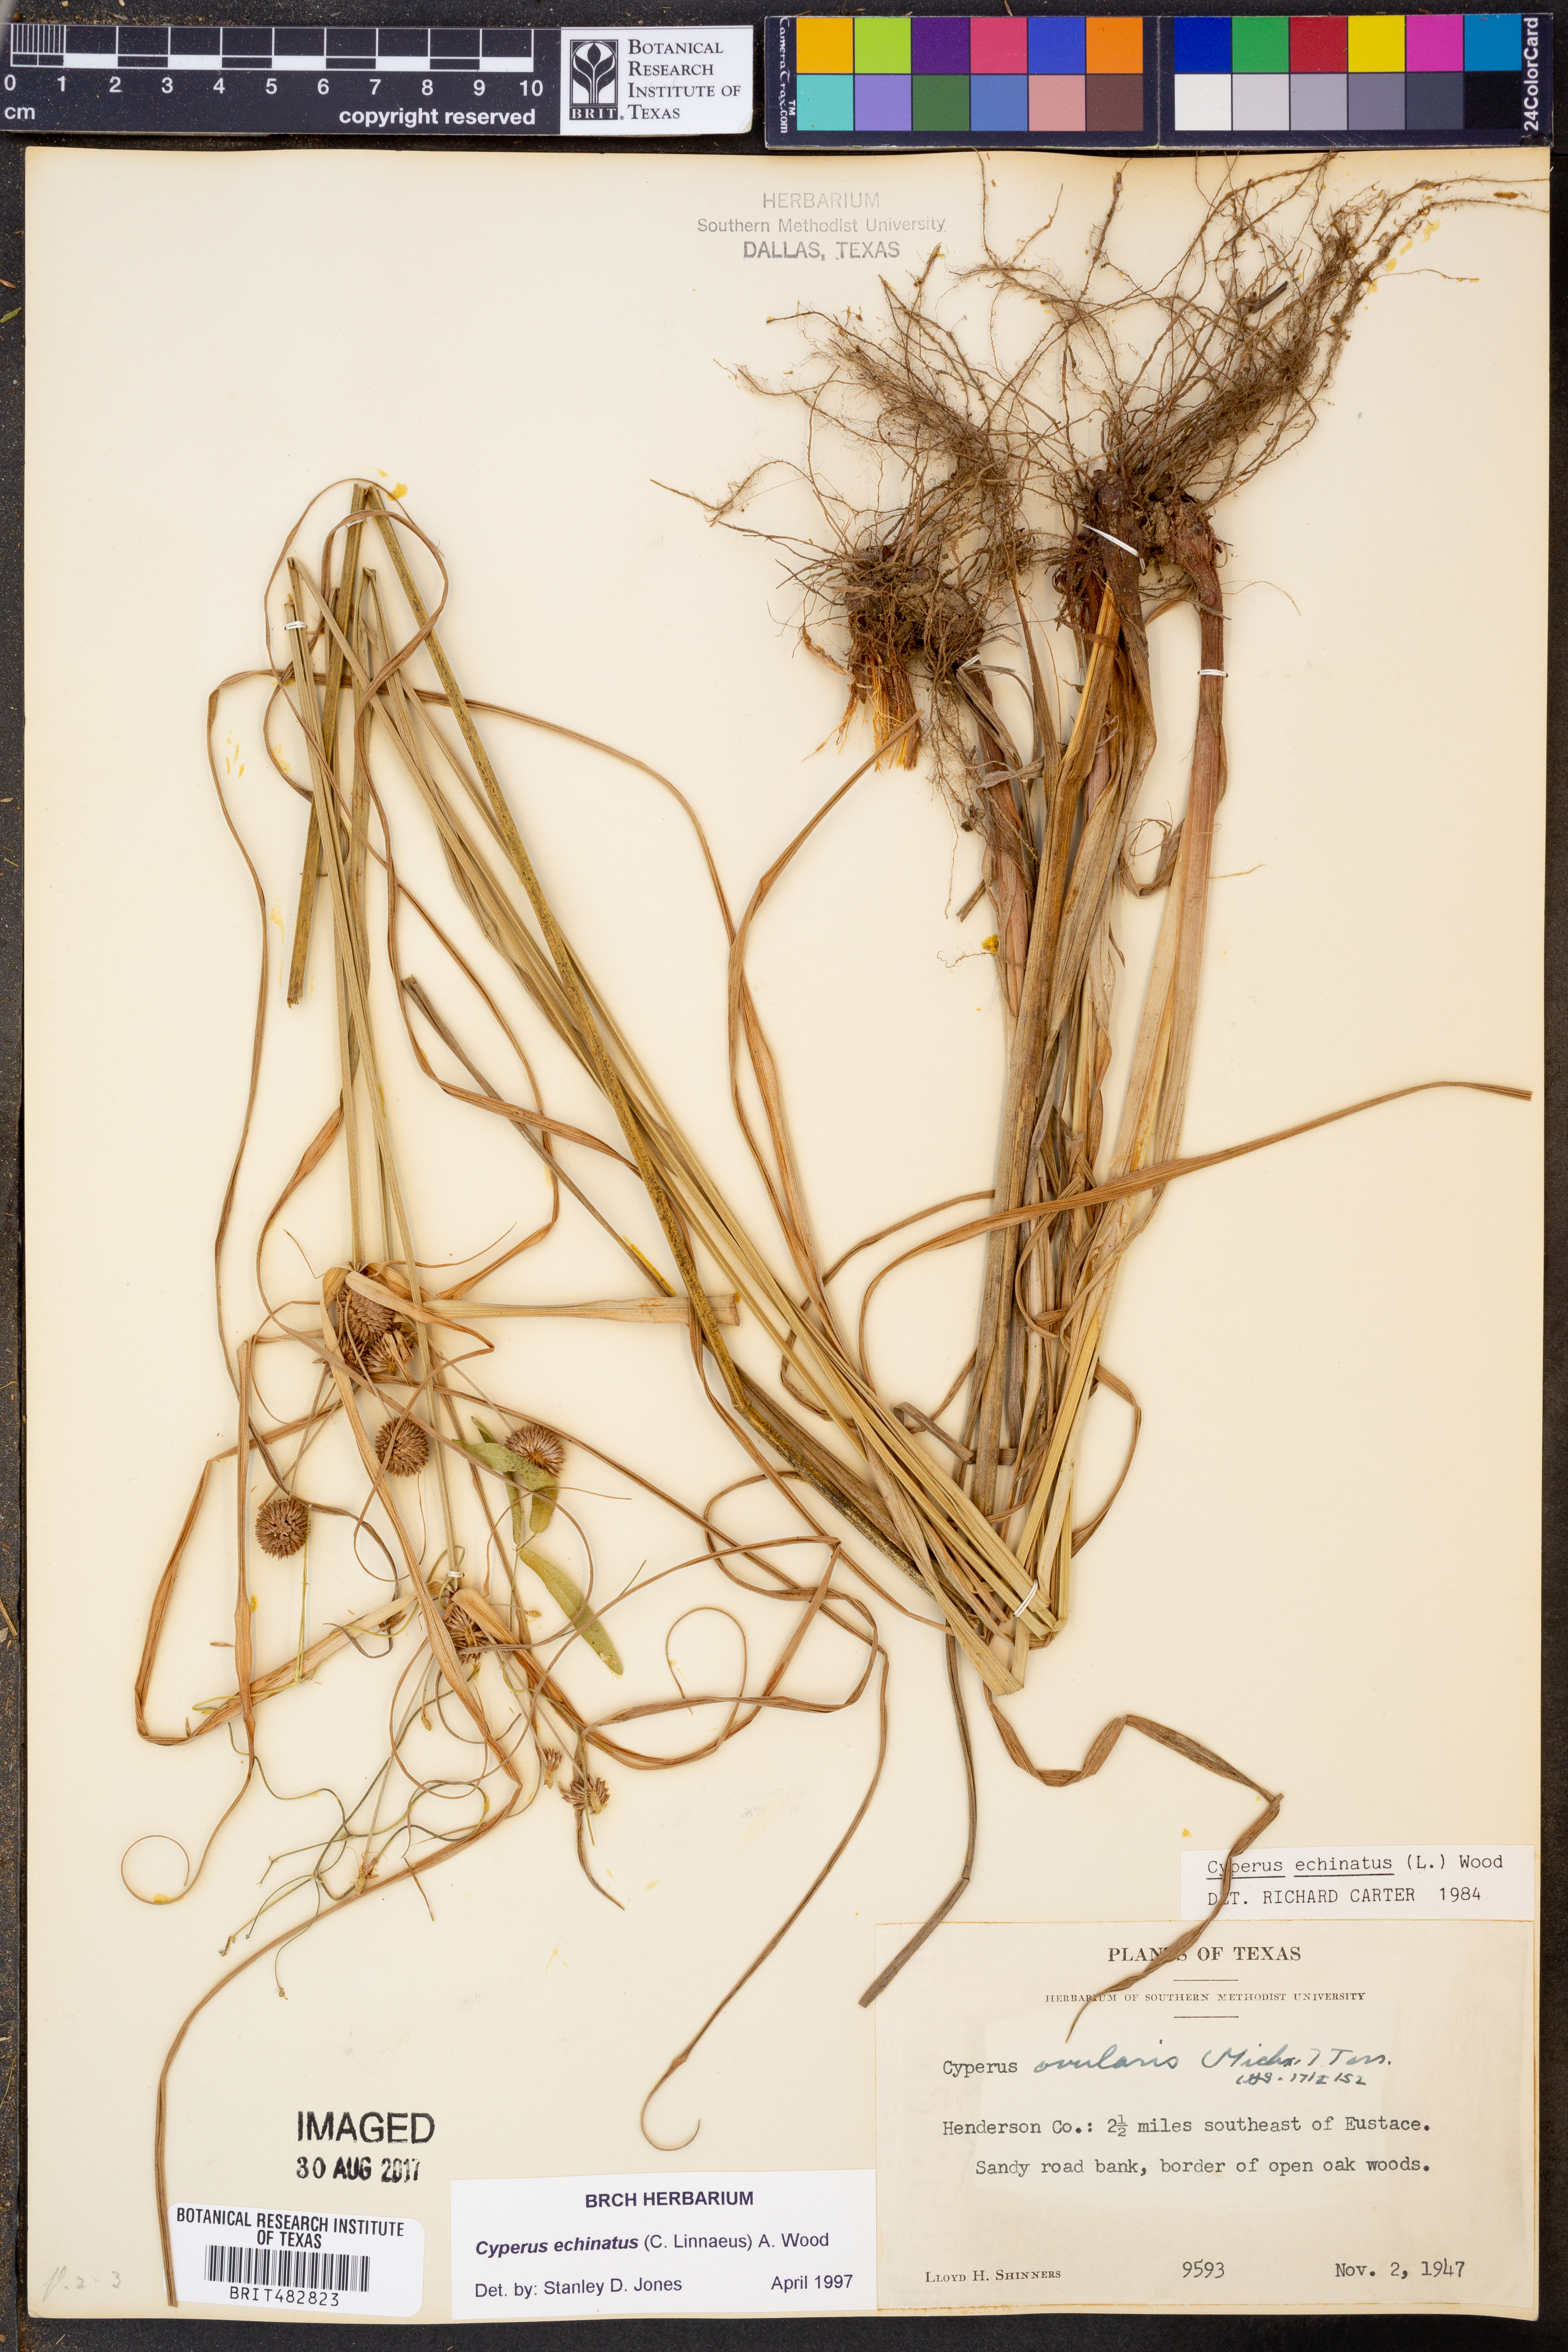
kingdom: Plantae
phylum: Tracheophyta
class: Liliopsida
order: Poales
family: Cyperaceae
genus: Cyperus
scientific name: Cyperus echinatus
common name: Teasel sedge
